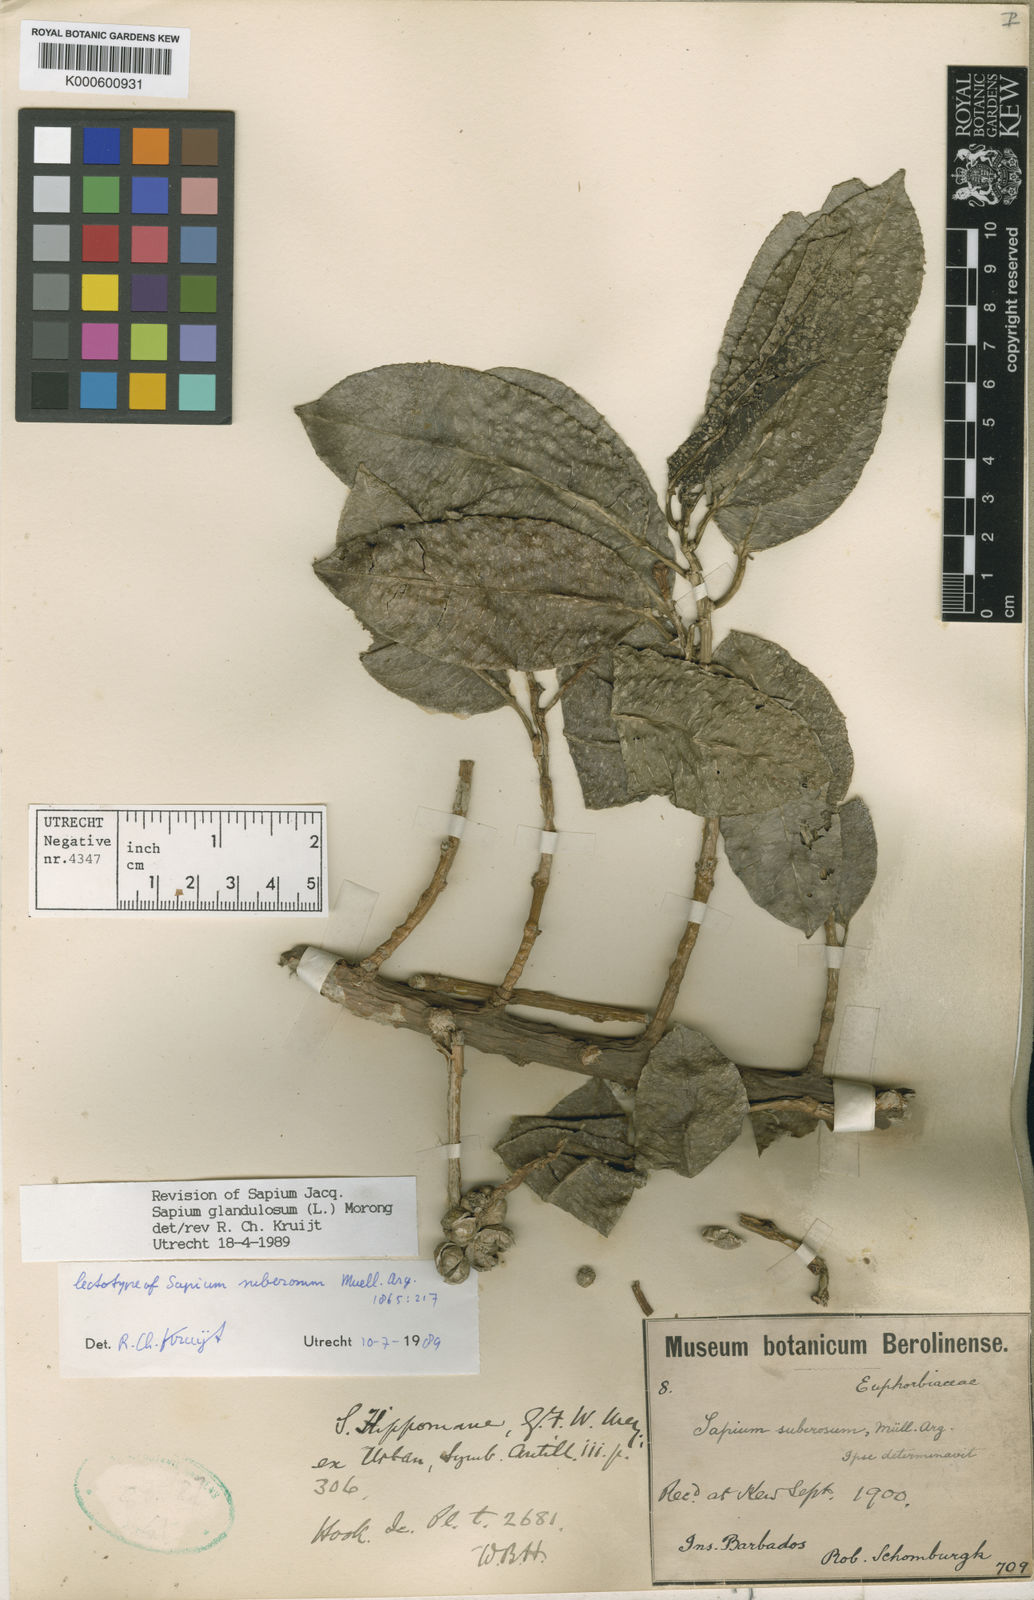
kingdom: Plantae
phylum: Tracheophyta
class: Magnoliopsida
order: Malpighiales
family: Euphorbiaceae
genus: Sapium
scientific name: Sapium glandulosum
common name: Milktree
